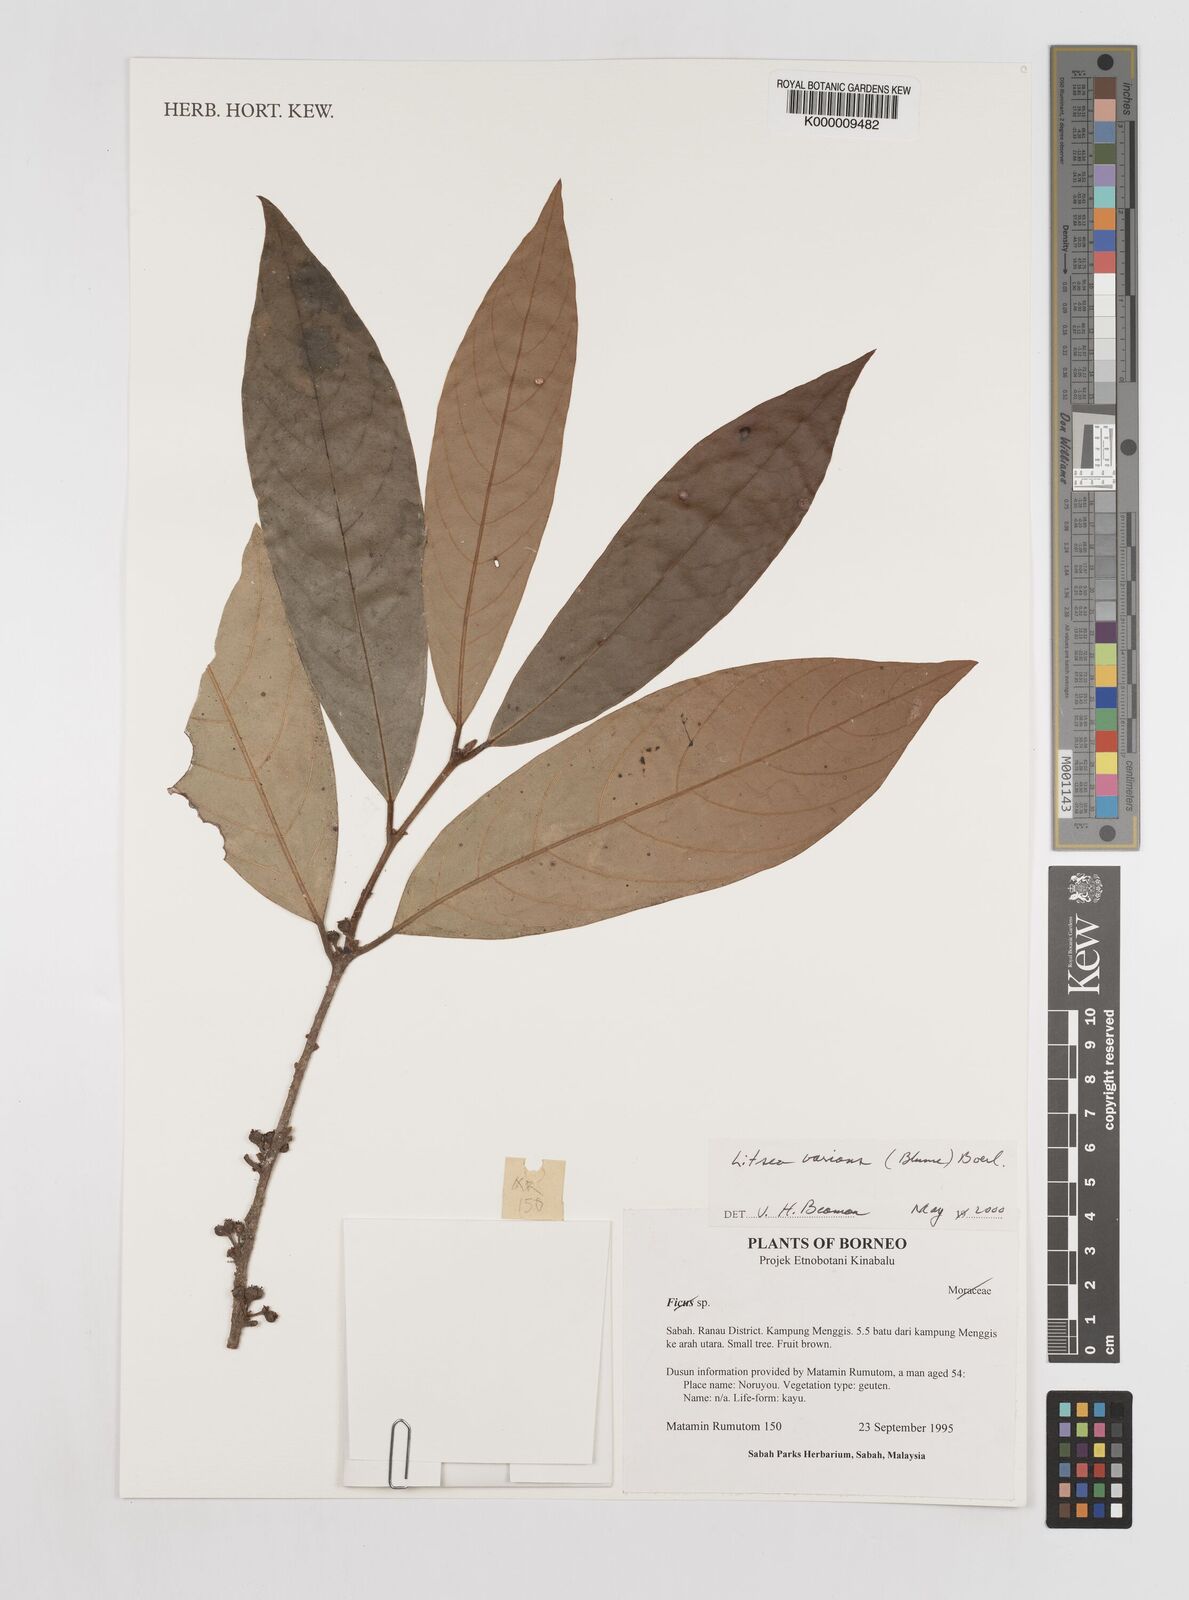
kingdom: Plantae
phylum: Tracheophyta
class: Magnoliopsida
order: Laurales
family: Lauraceae
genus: Litsea
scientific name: Litsea varians
